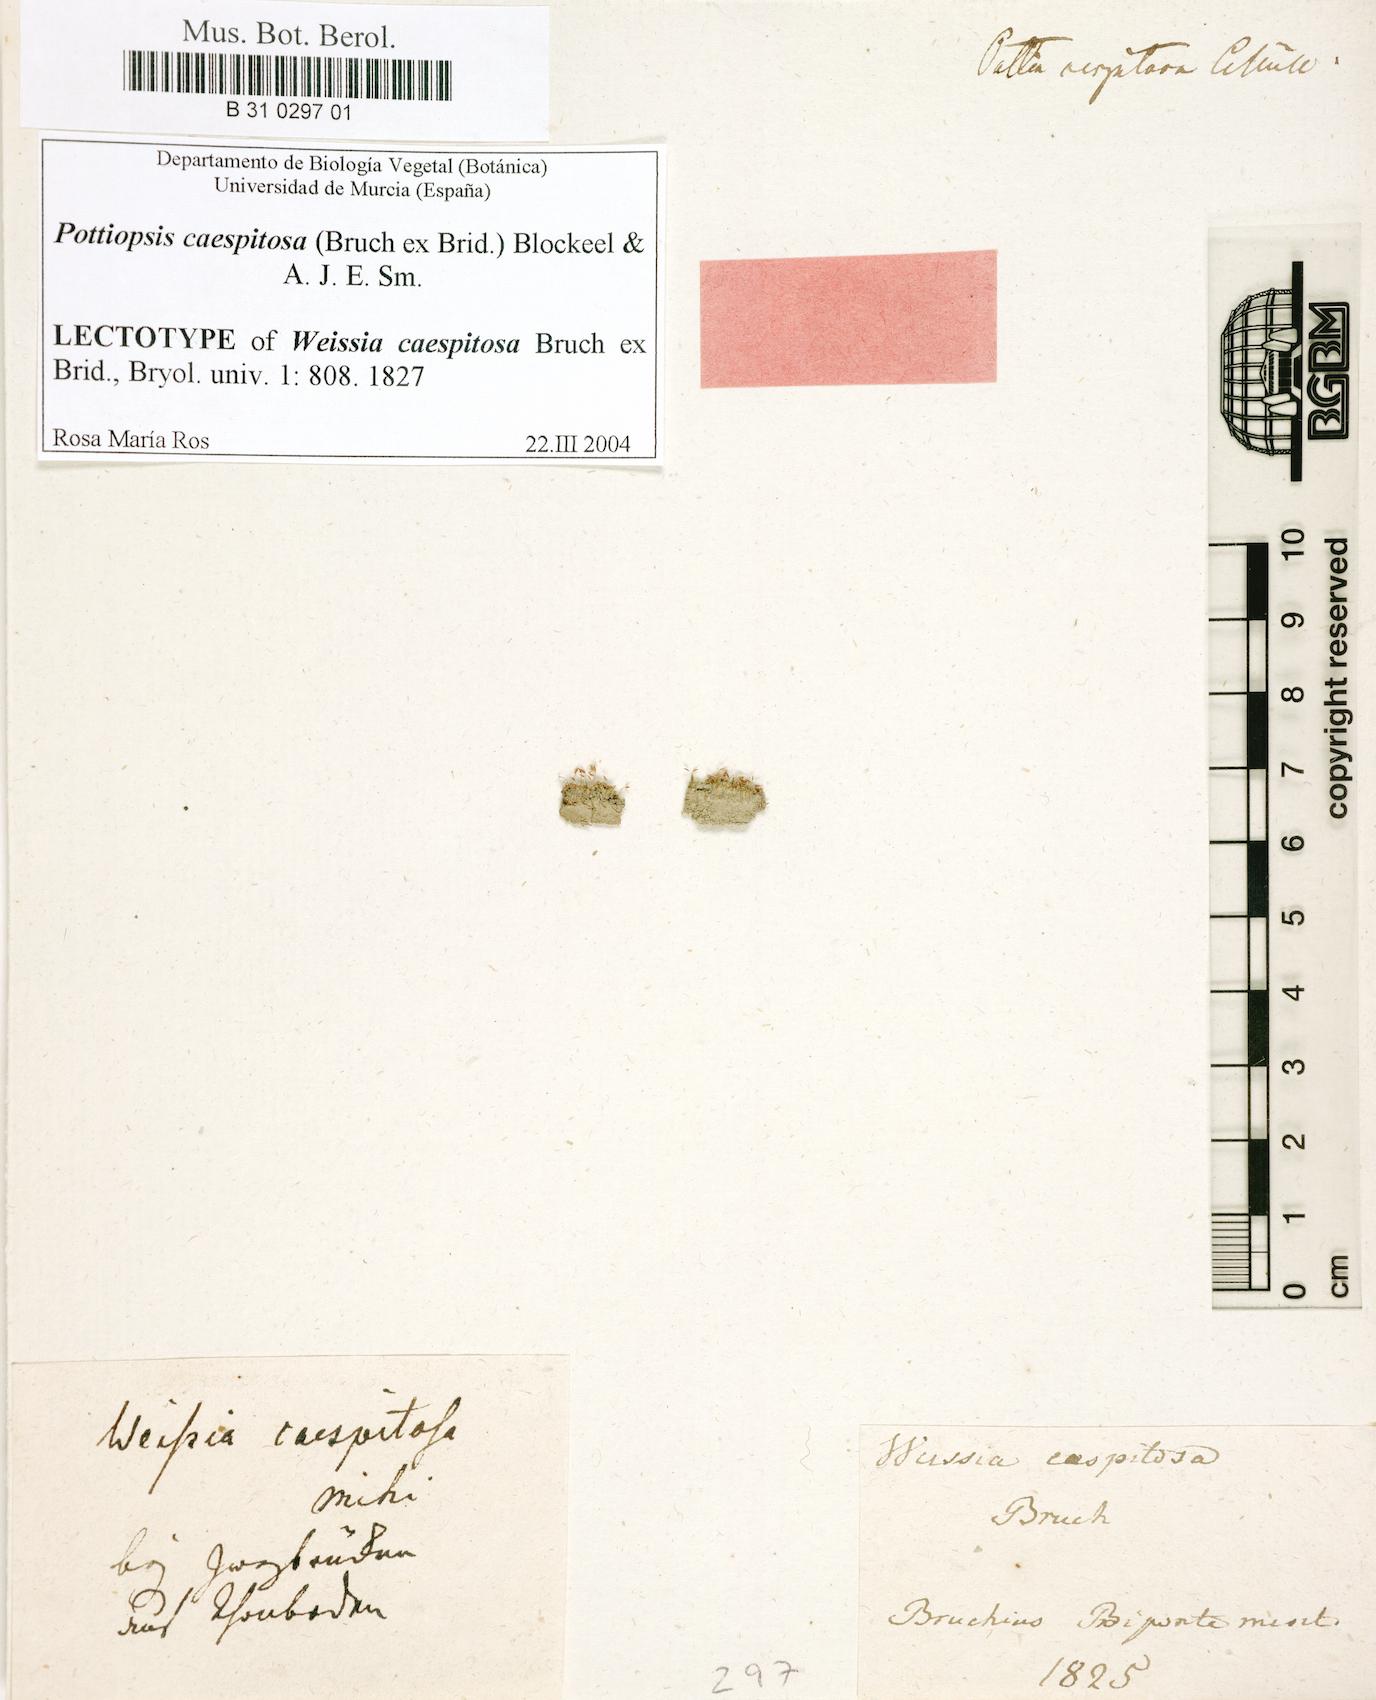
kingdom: Plantae
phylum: Bryophyta
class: Bryopsida
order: Pottiales
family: Pottiaceae
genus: Weissia
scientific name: Weissia caespitosa
